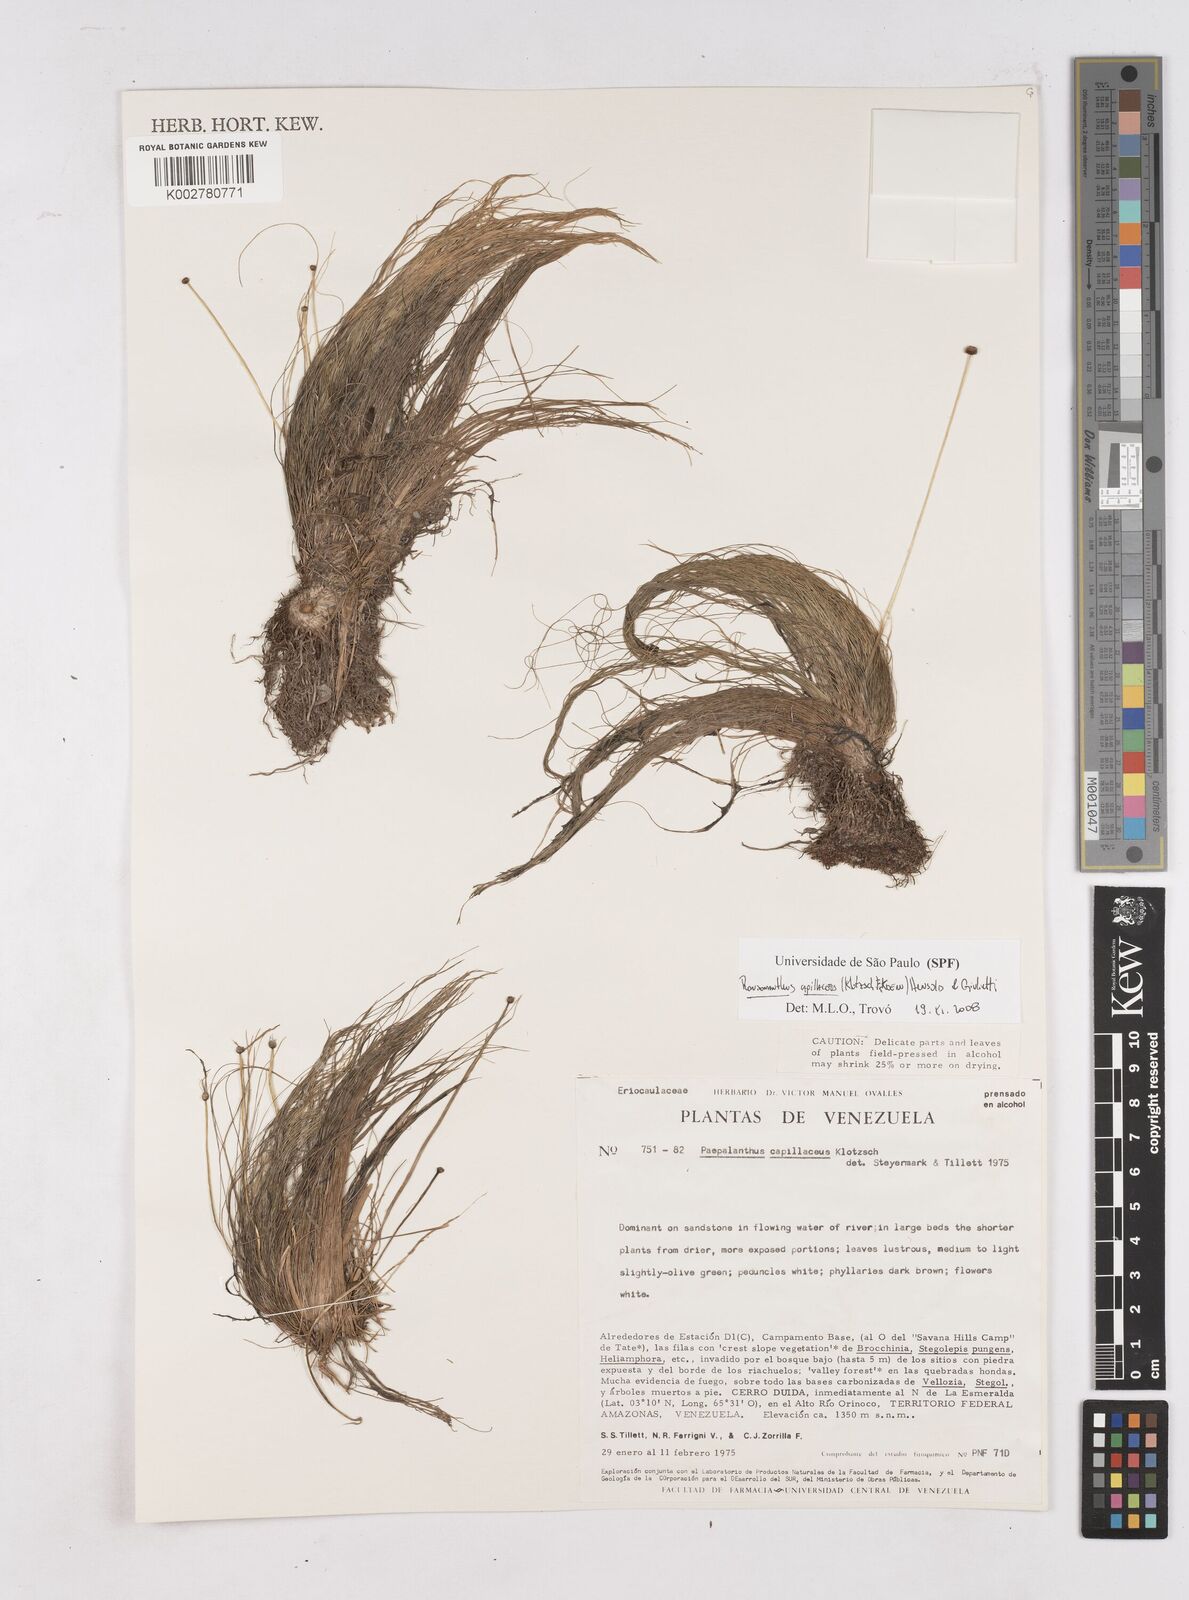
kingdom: Plantae
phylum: Tracheophyta
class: Liliopsida
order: Poales
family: Eriocaulaceae
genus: Rondonanthus
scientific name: Rondonanthus capillaceus
